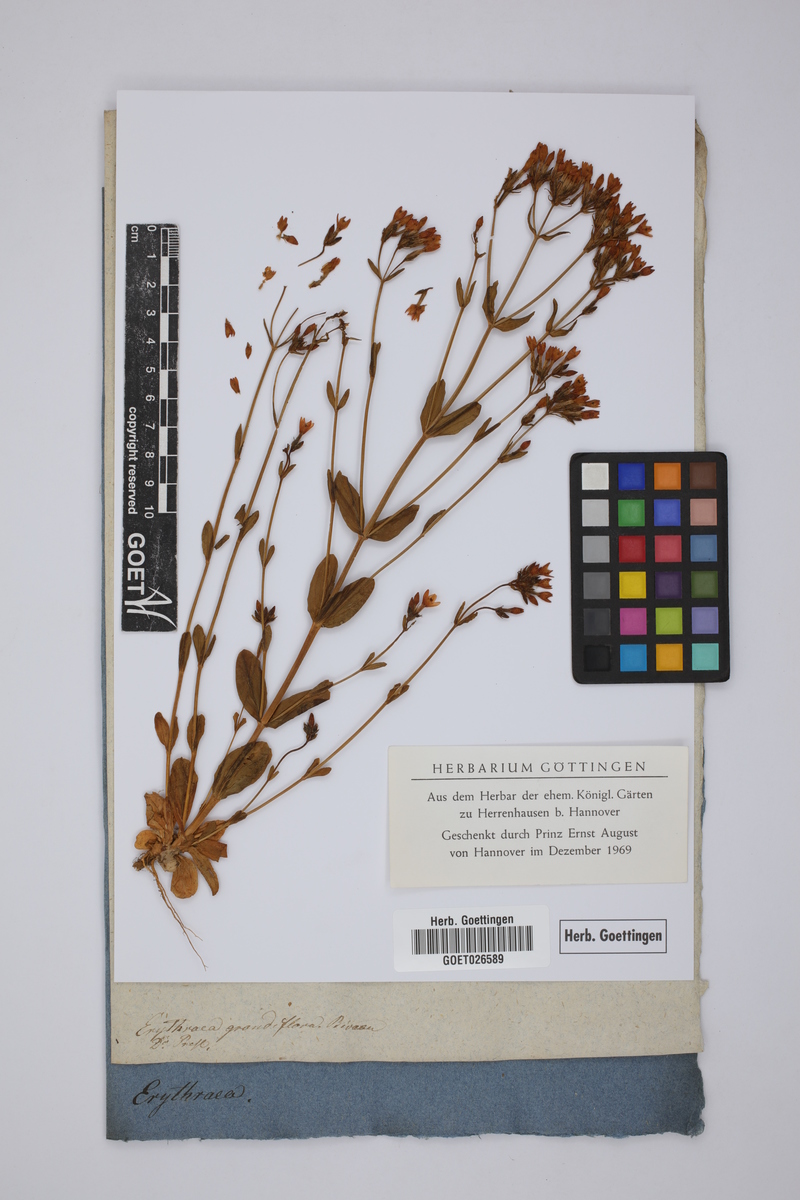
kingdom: Plantae
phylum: Tracheophyta
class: Magnoliopsida
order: Gentianales
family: Gentianaceae
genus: Centaurium
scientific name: Centaurium grandiflorum
